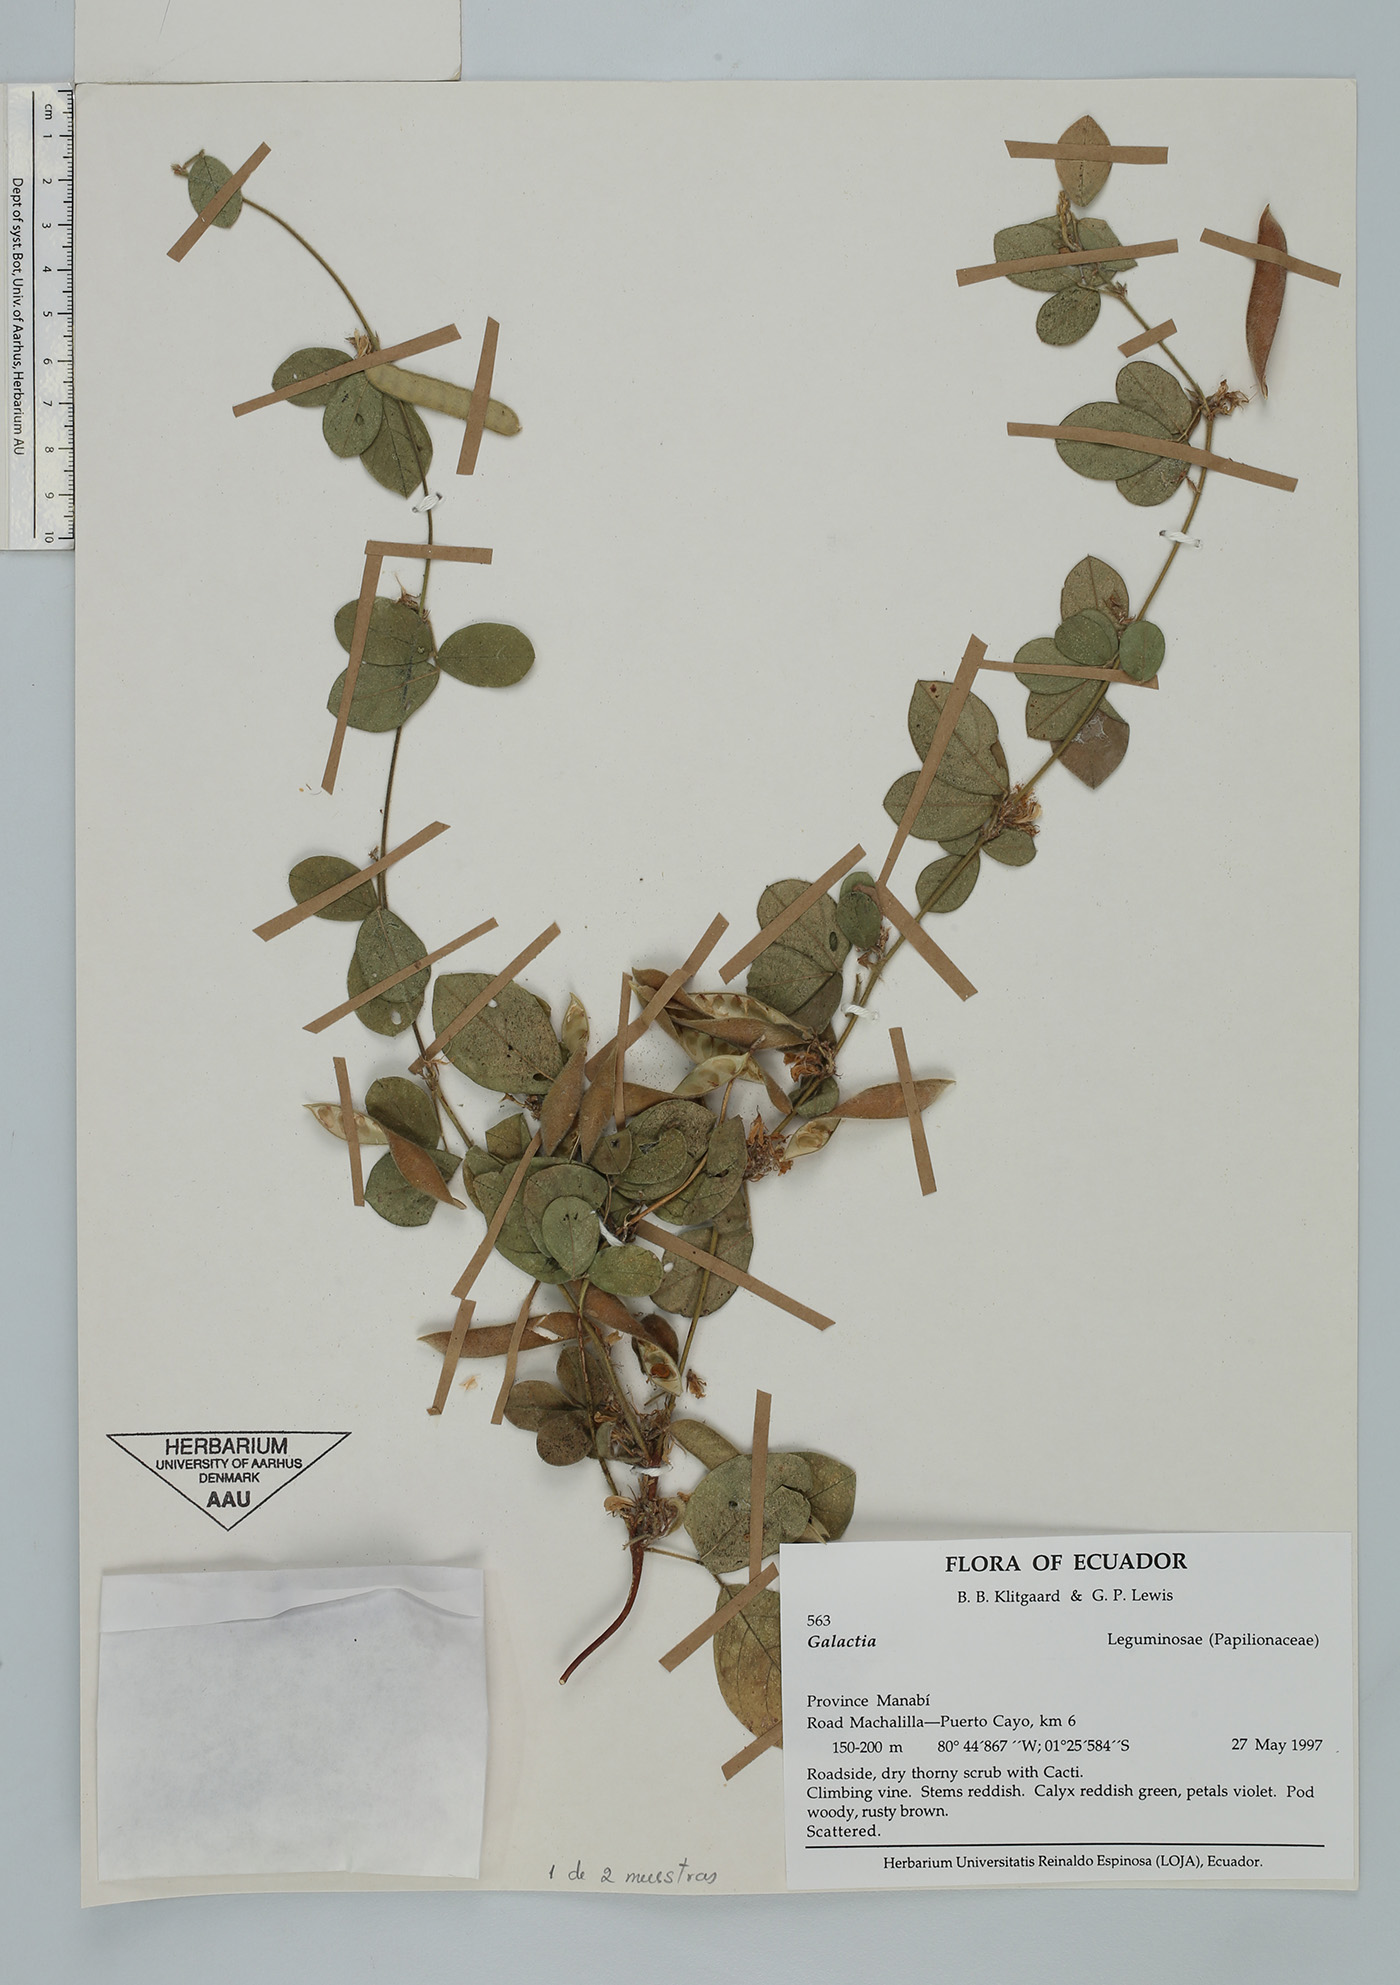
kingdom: Plantae
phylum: Tracheophyta
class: Magnoliopsida
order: Fabales
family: Fabaceae
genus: Galactia
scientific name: Galactia striata
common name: Florida hammock milkpea
